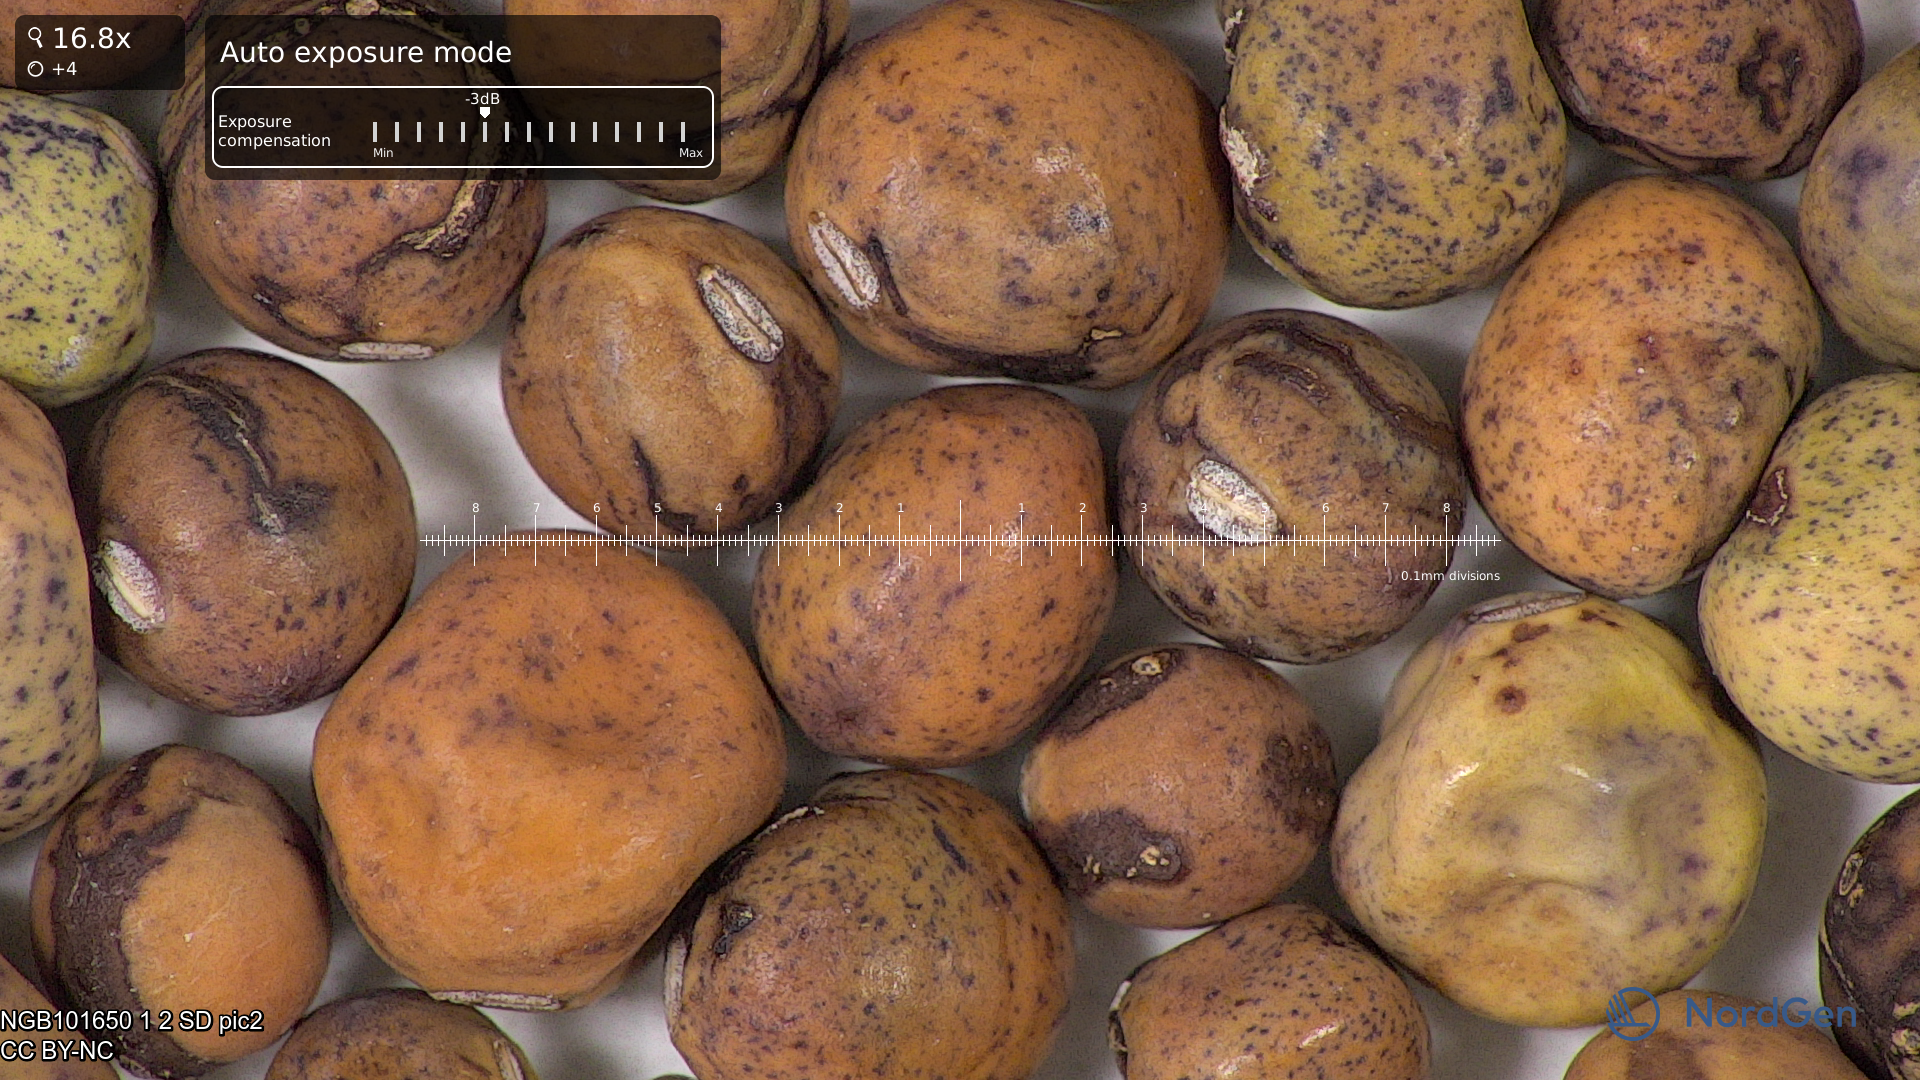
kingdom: Plantae
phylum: Tracheophyta
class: Magnoliopsida
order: Fabales
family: Fabaceae
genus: Lathyrus
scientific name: Lathyrus oleraceus
